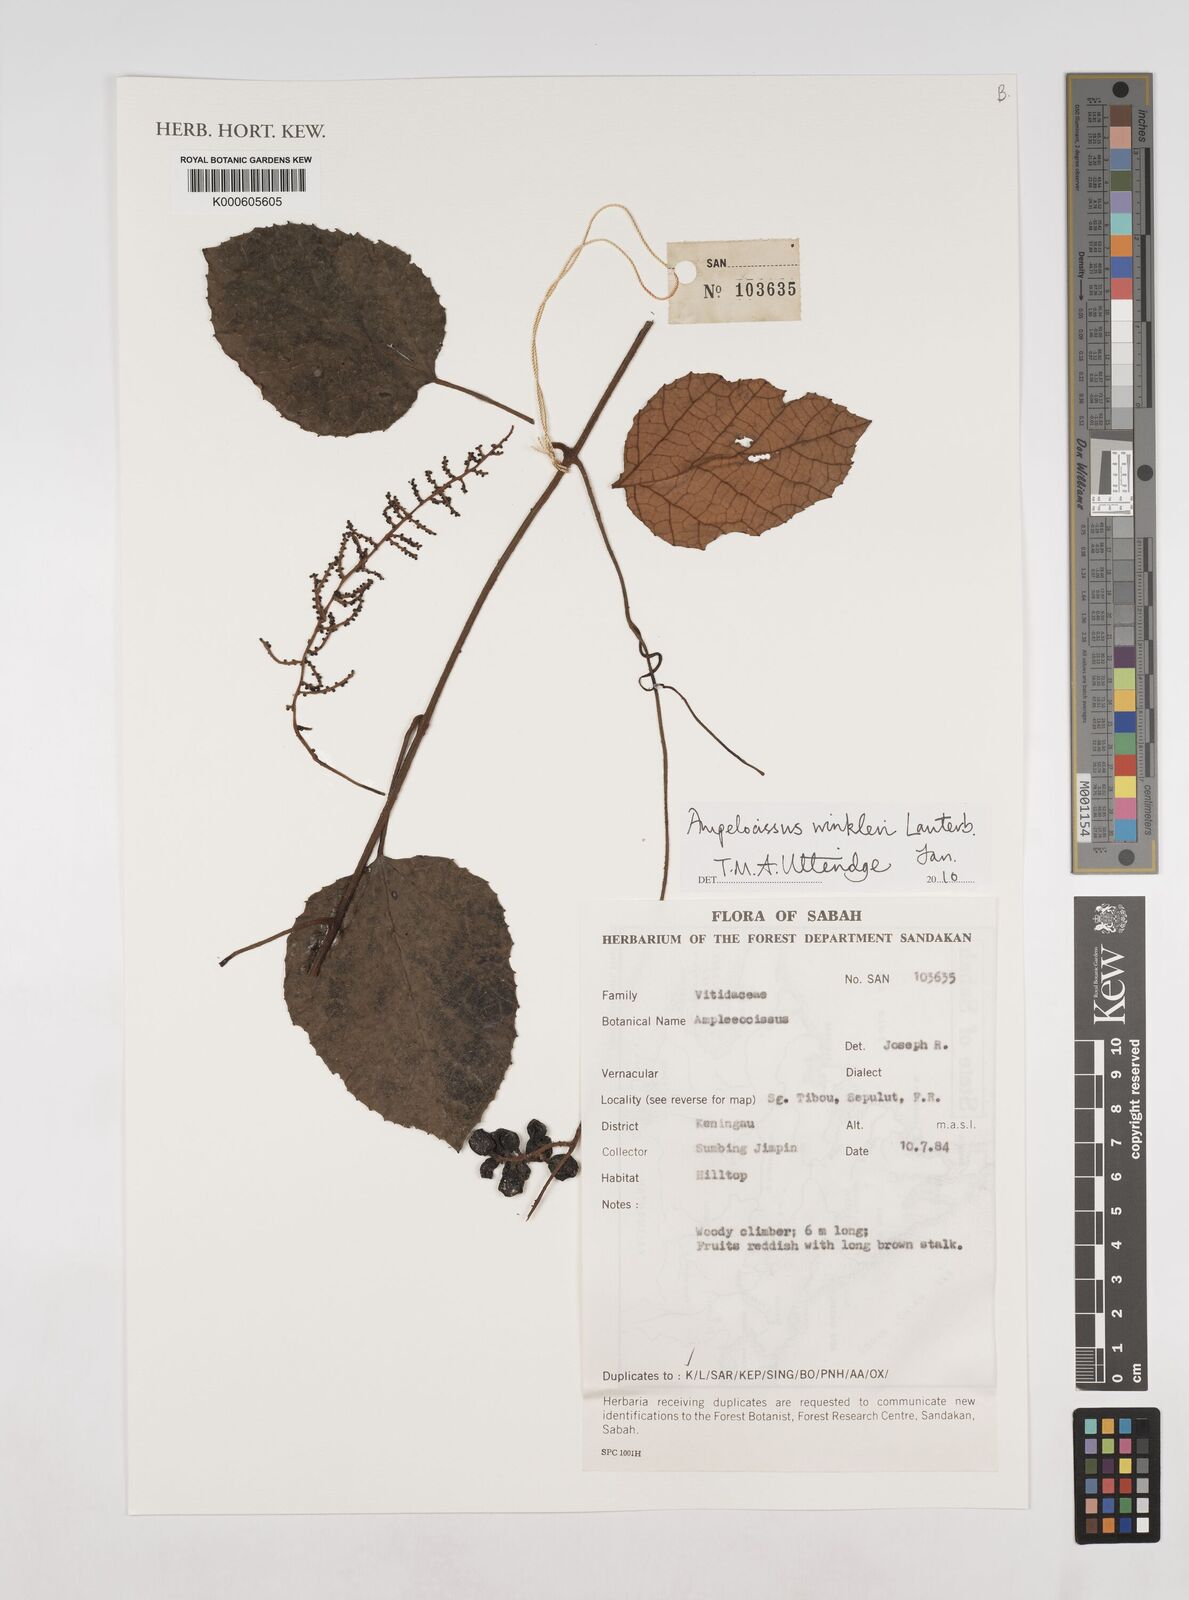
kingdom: Plantae
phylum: Tracheophyta
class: Magnoliopsida
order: Vitales
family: Vitaceae
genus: Ampelocissus
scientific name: Ampelocissus winkleri
